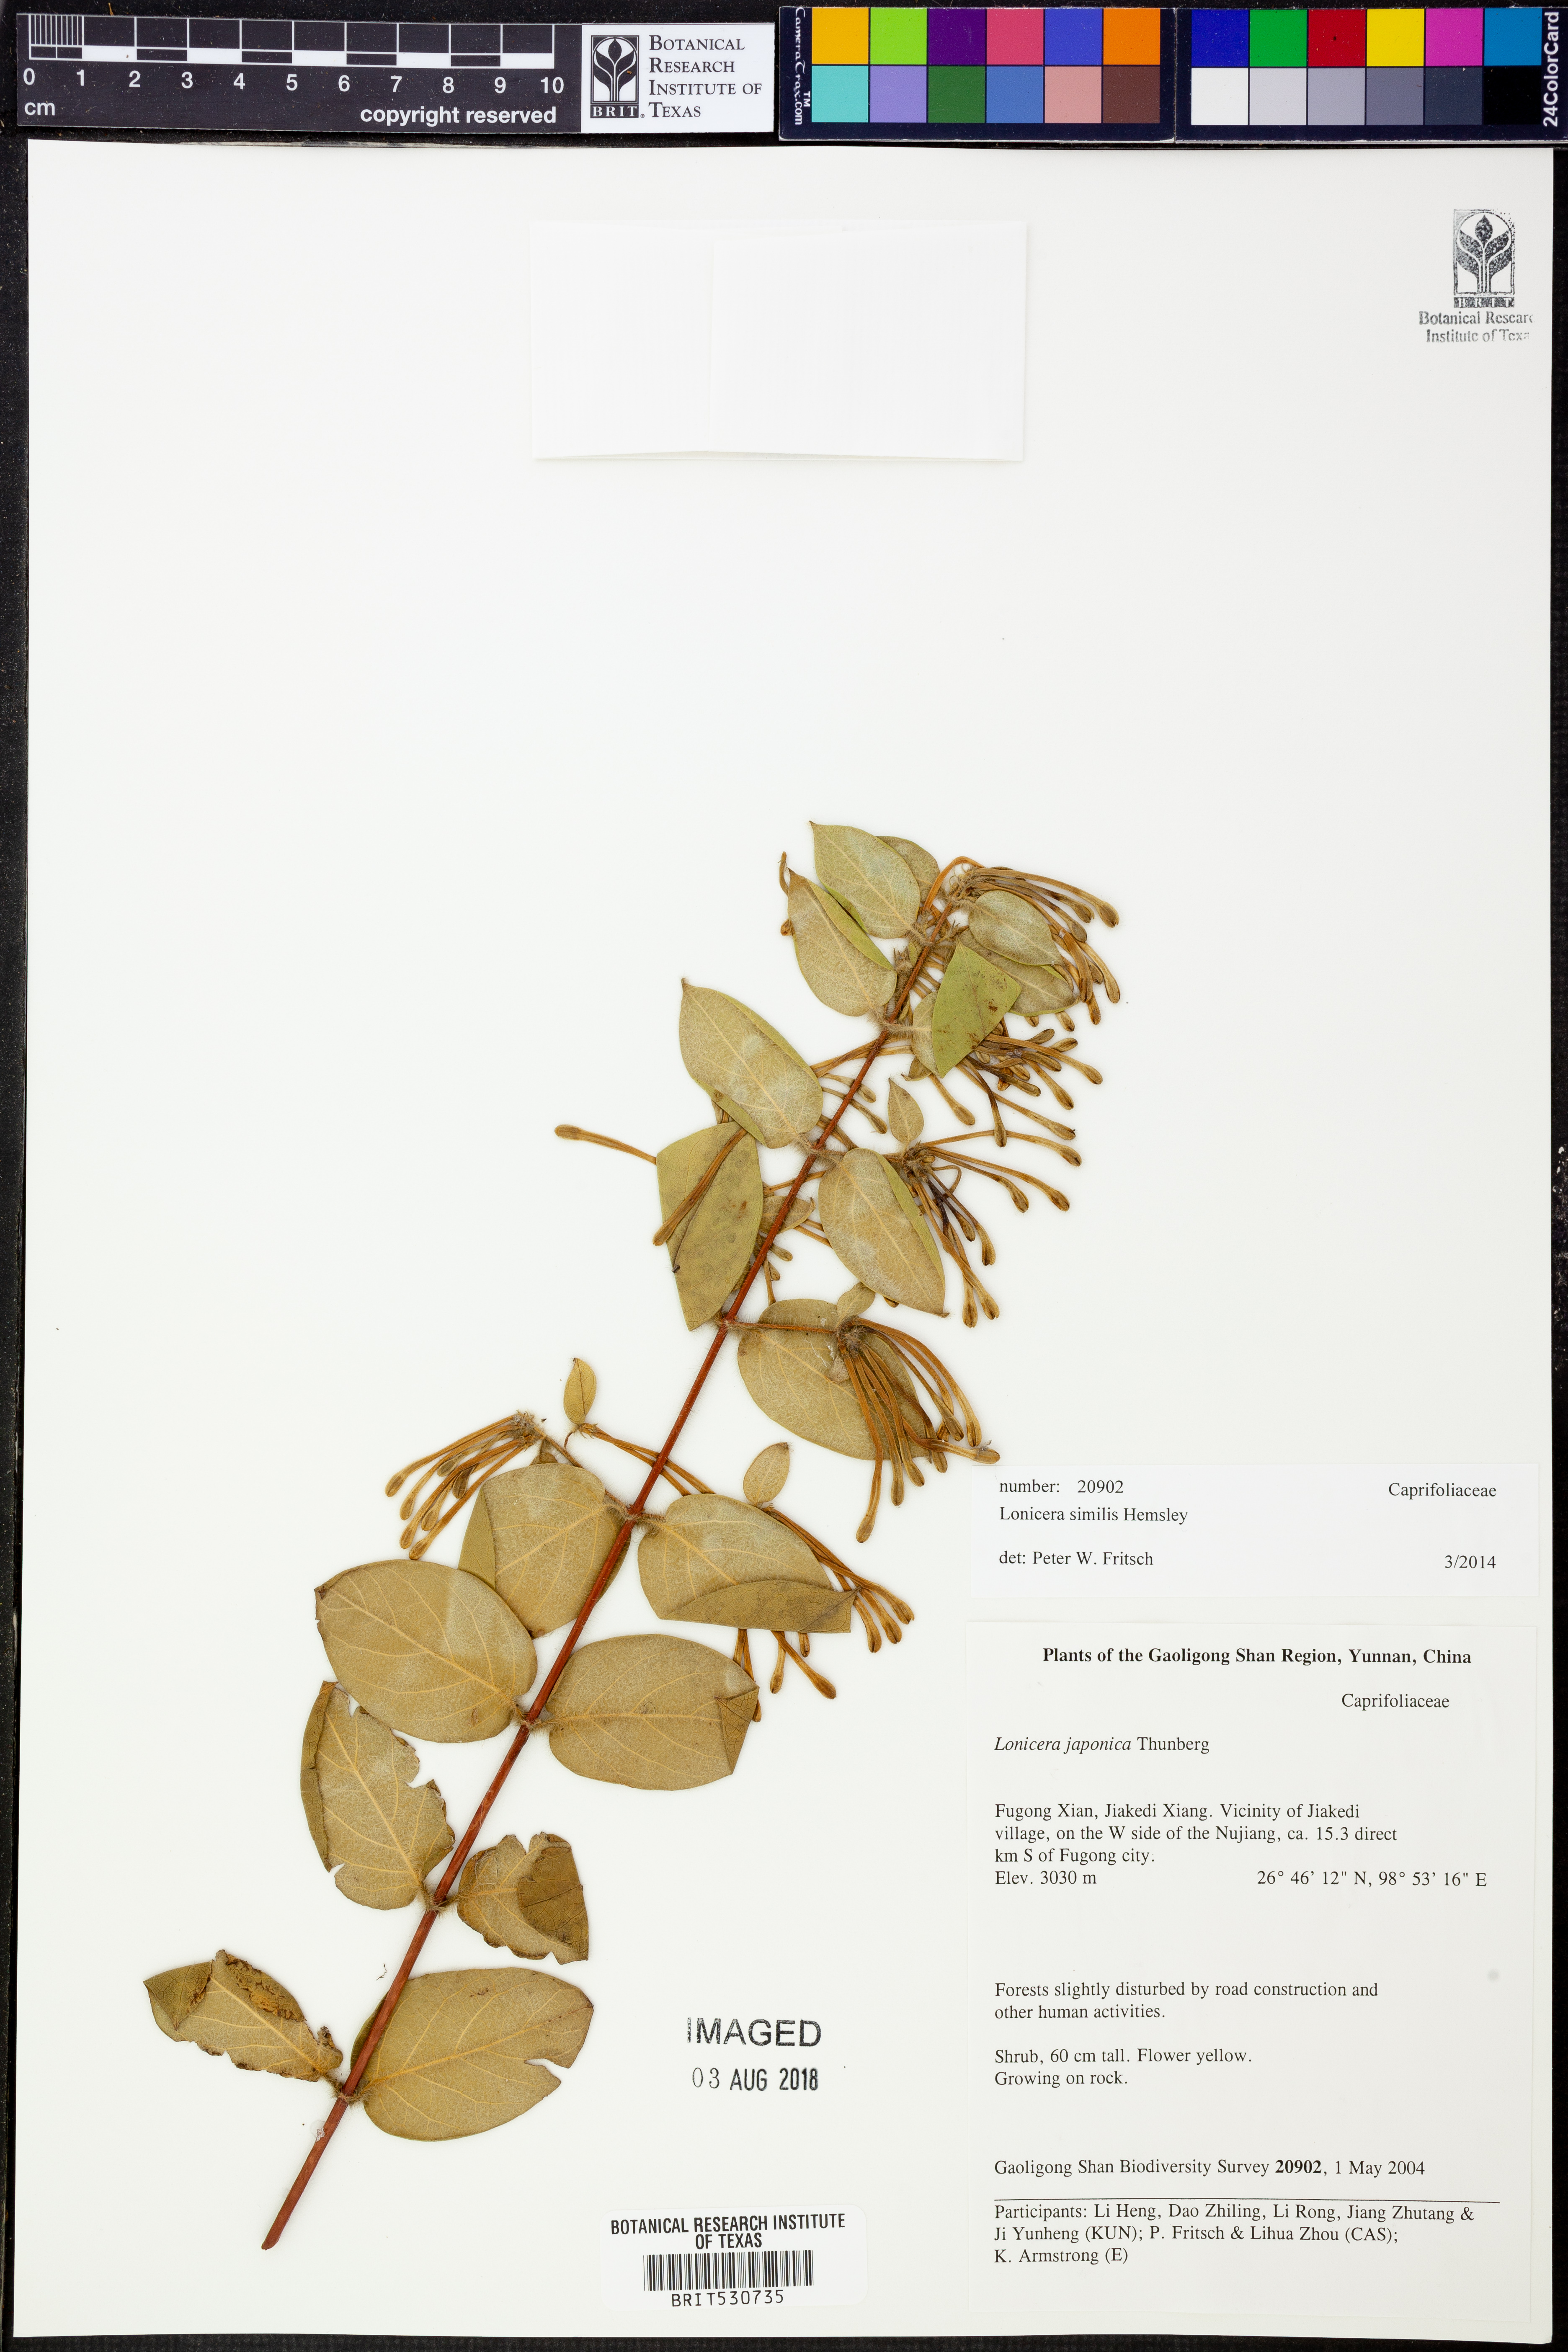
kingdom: Plantae
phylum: Tracheophyta
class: Magnoliopsida
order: Dipsacales
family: Caprifoliaceae
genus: Lonicera
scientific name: Lonicera similis
